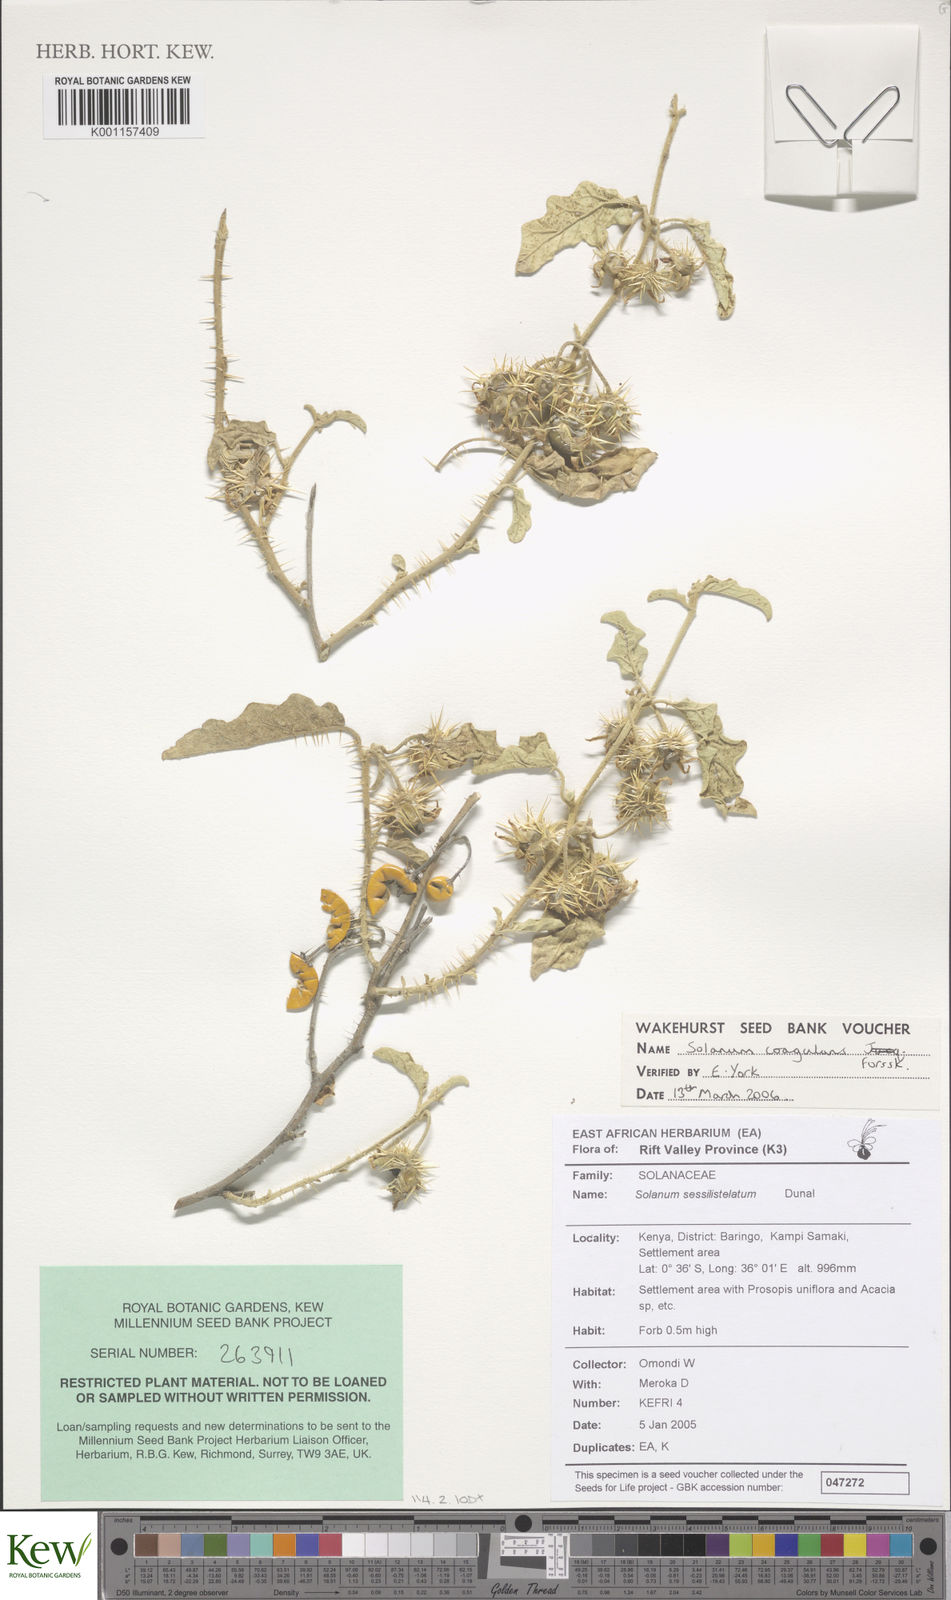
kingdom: Plantae
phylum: Tracheophyta
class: Magnoliopsida
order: Solanales
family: Solanaceae
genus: Solanum
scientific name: Solanum coagulans
